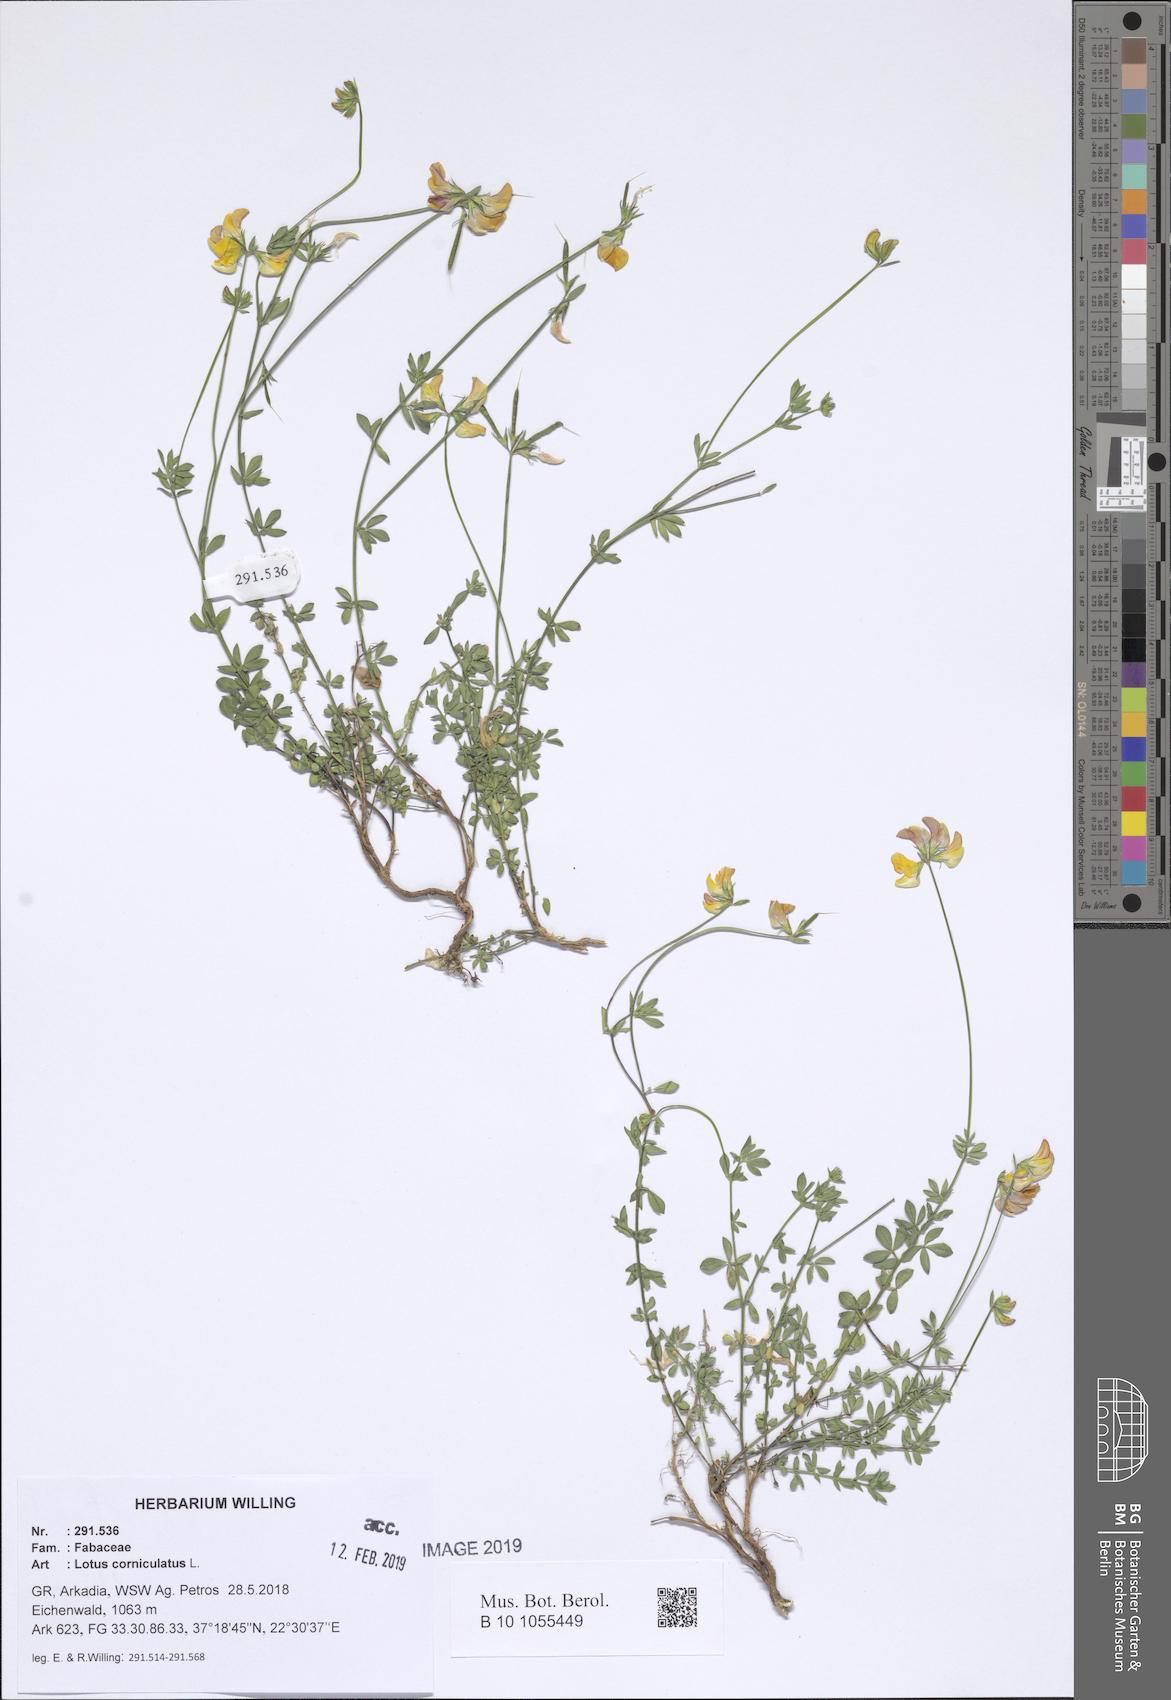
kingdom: Plantae
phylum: Tracheophyta
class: Magnoliopsida
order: Fabales
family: Fabaceae
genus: Lotus
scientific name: Lotus corniculatus
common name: Common bird's-foot-trefoil
